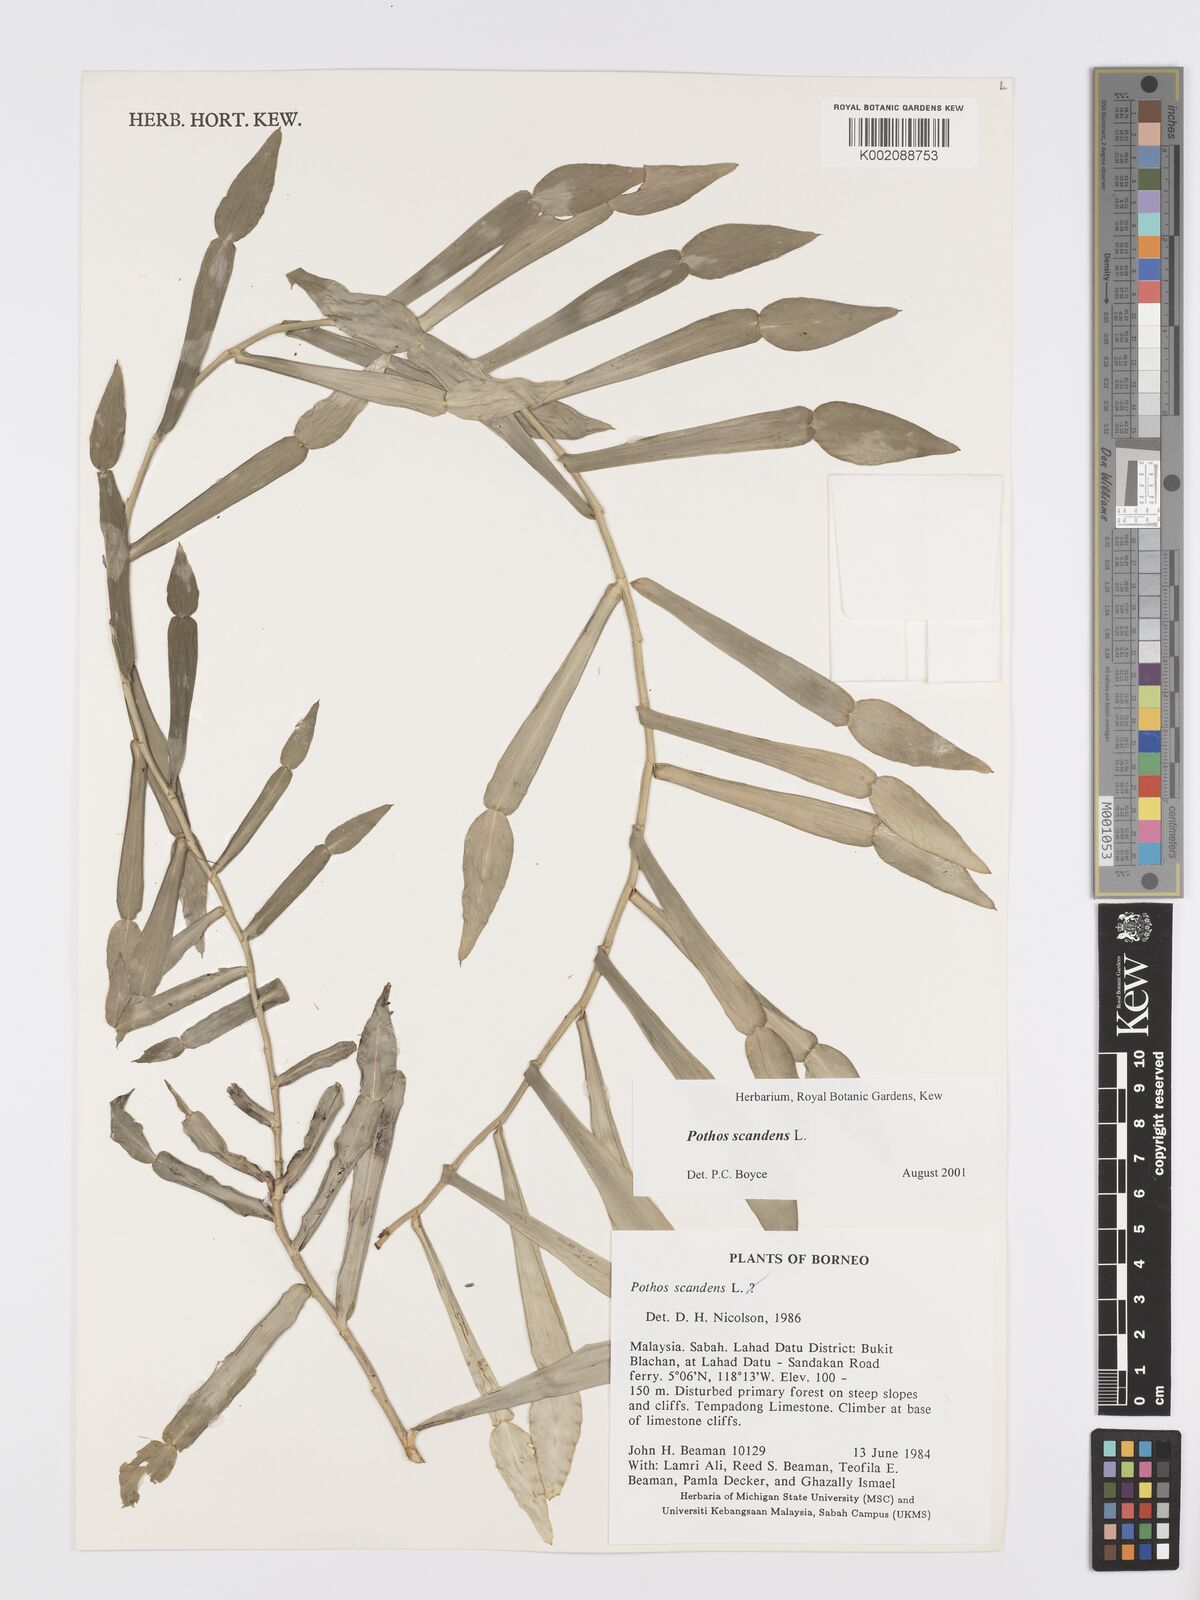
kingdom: Plantae
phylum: Tracheophyta
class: Liliopsida
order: Alismatales
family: Araceae
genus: Pothos
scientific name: Pothos scandens
